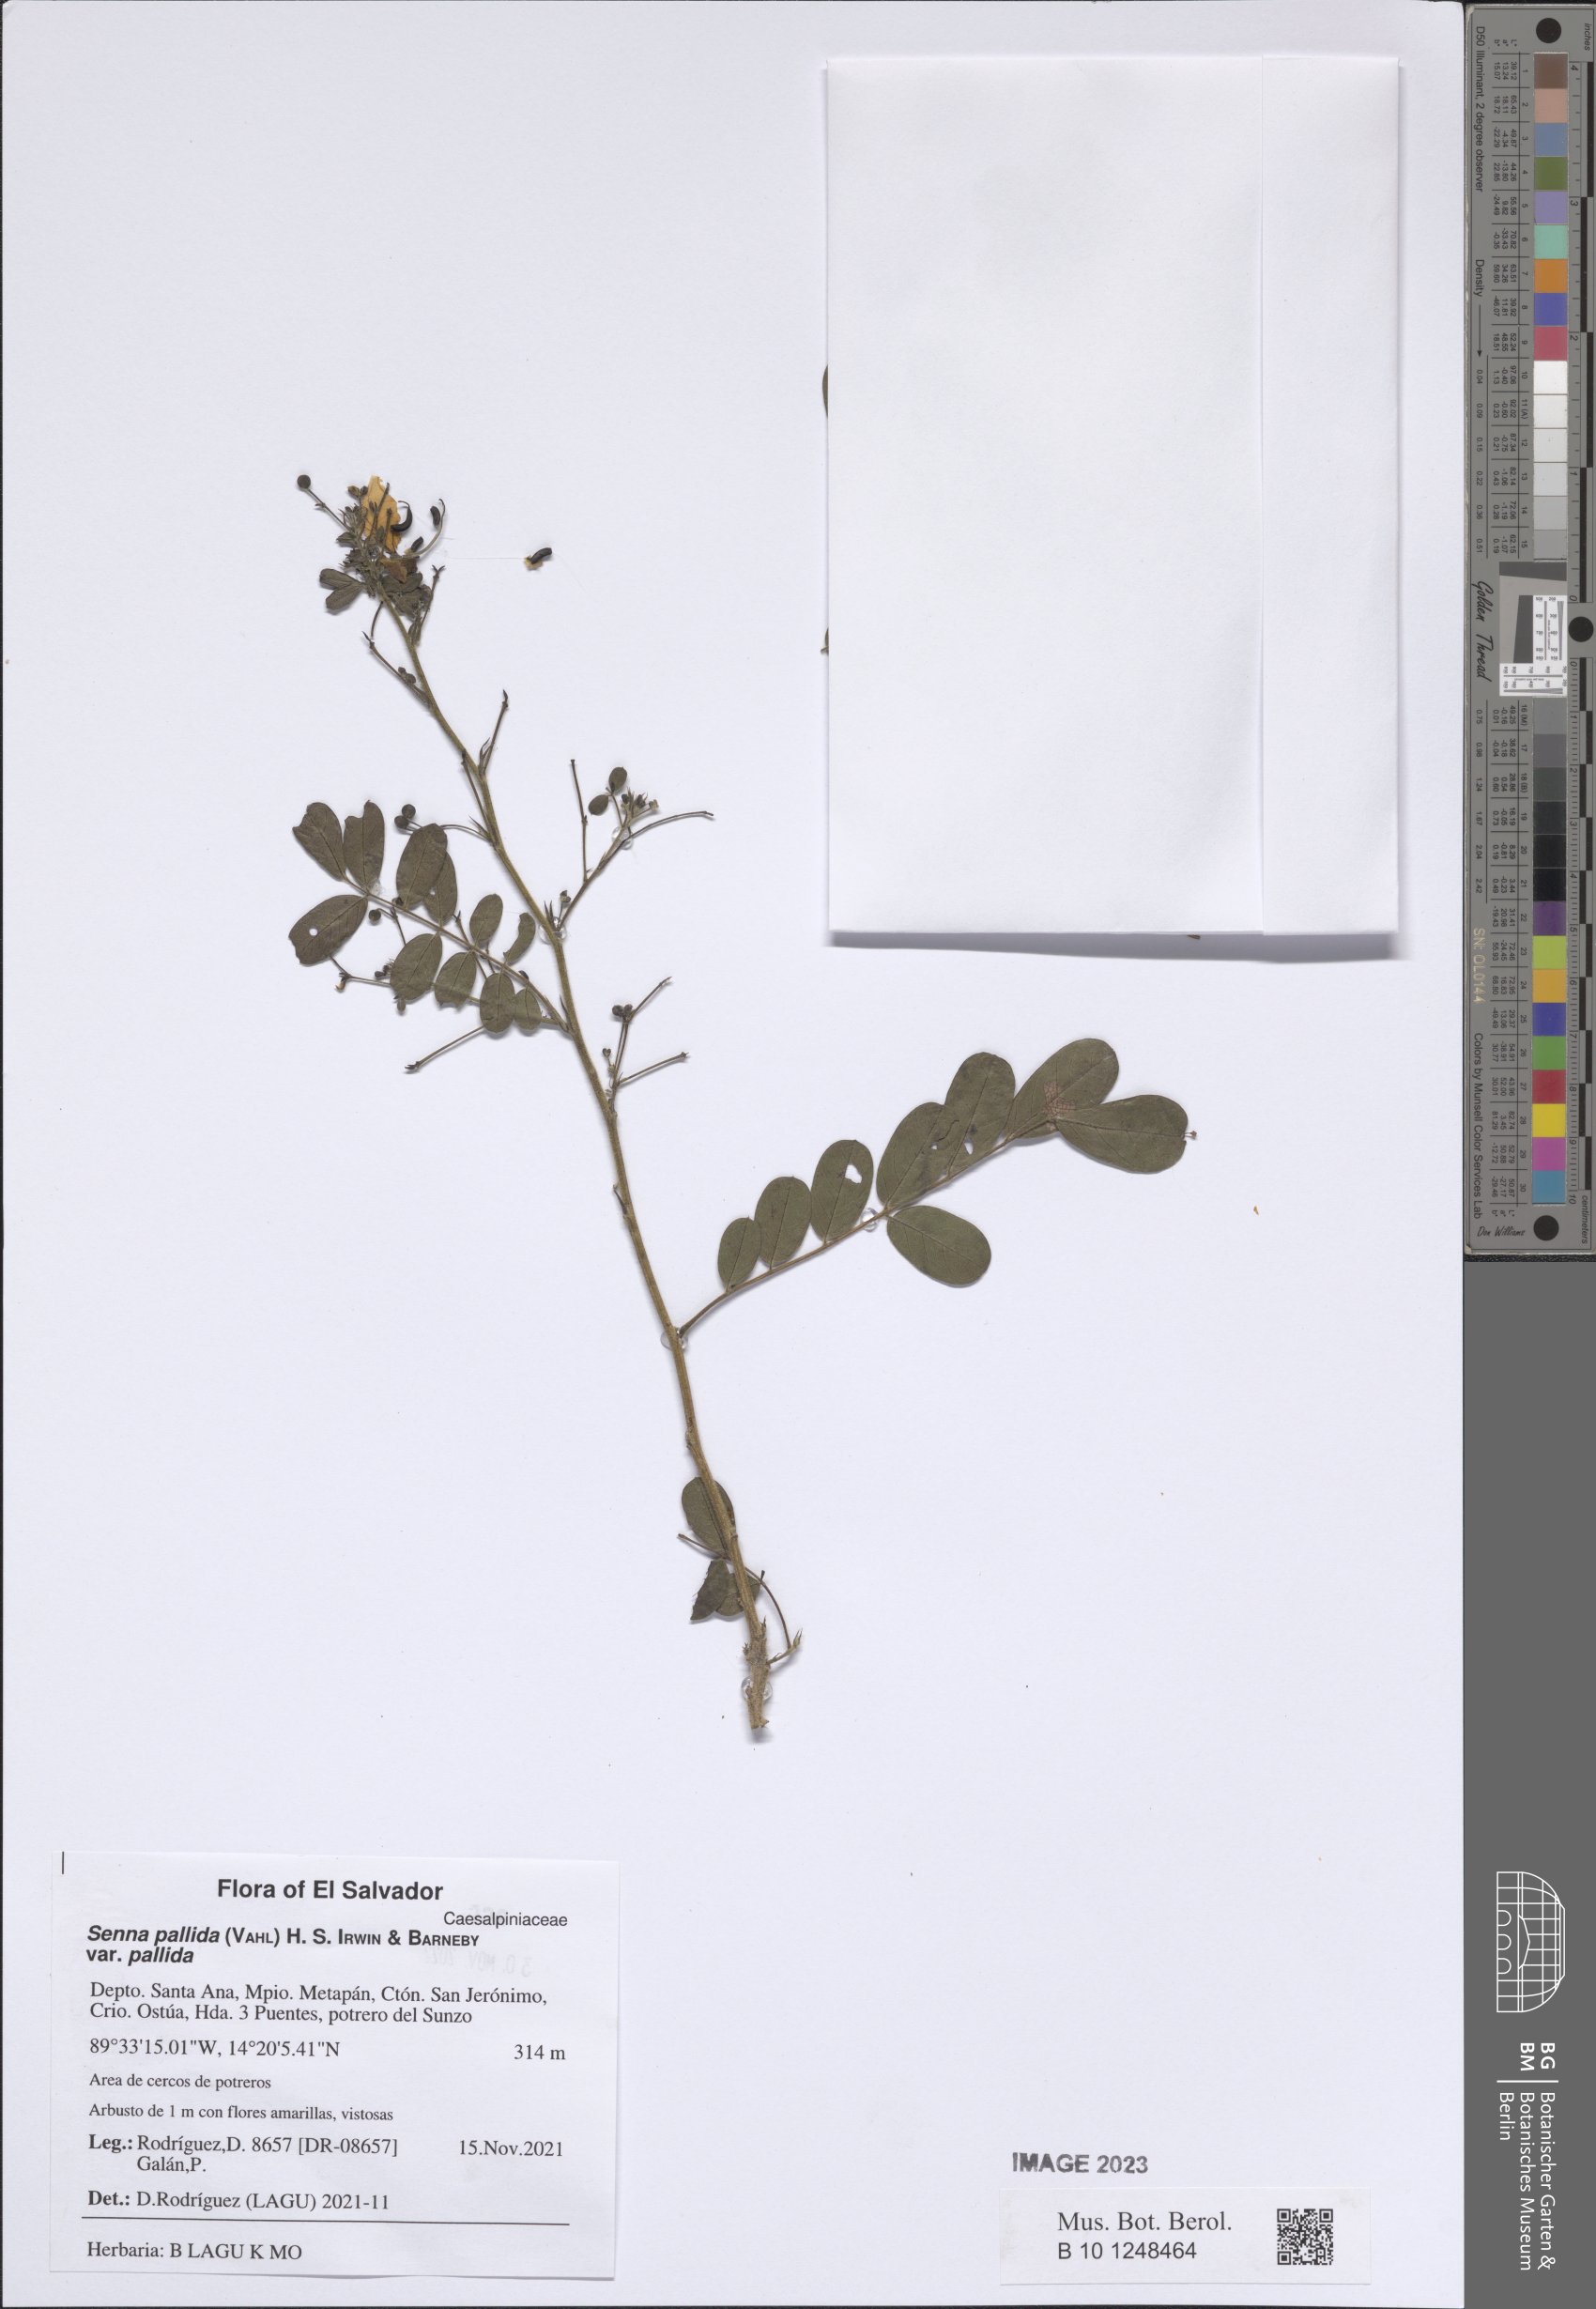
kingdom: Plantae
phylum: Tracheophyta
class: Magnoliopsida
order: Fabales
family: Fabaceae
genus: Senna
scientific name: Senna pallida
